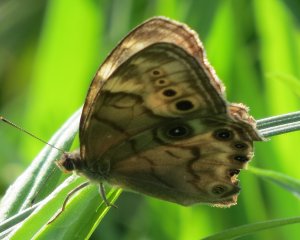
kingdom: Animalia
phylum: Arthropoda
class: Insecta
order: Lepidoptera
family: Nymphalidae
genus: Lethe
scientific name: Lethe anthedon
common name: Northern Pearly-Eye
